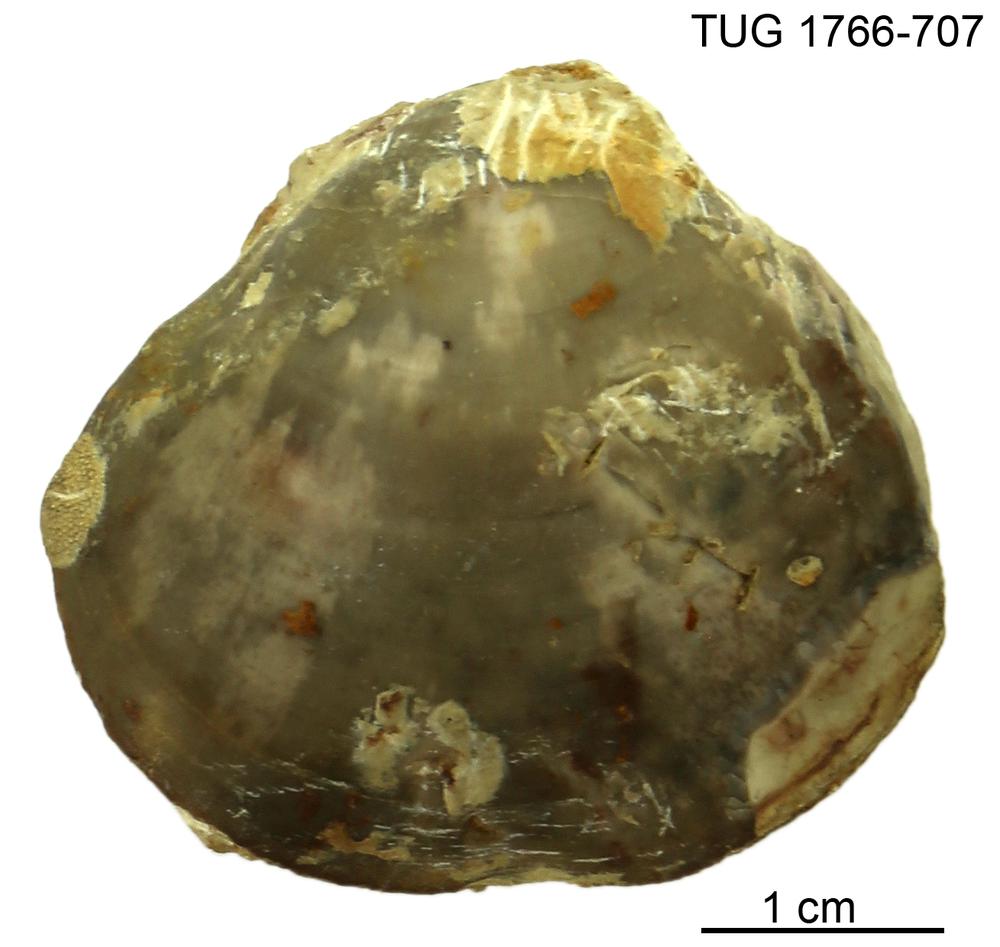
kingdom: Animalia
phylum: Brachiopoda
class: Rhynchonellata
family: Porambonitidae
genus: Porambonites
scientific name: Porambonites
